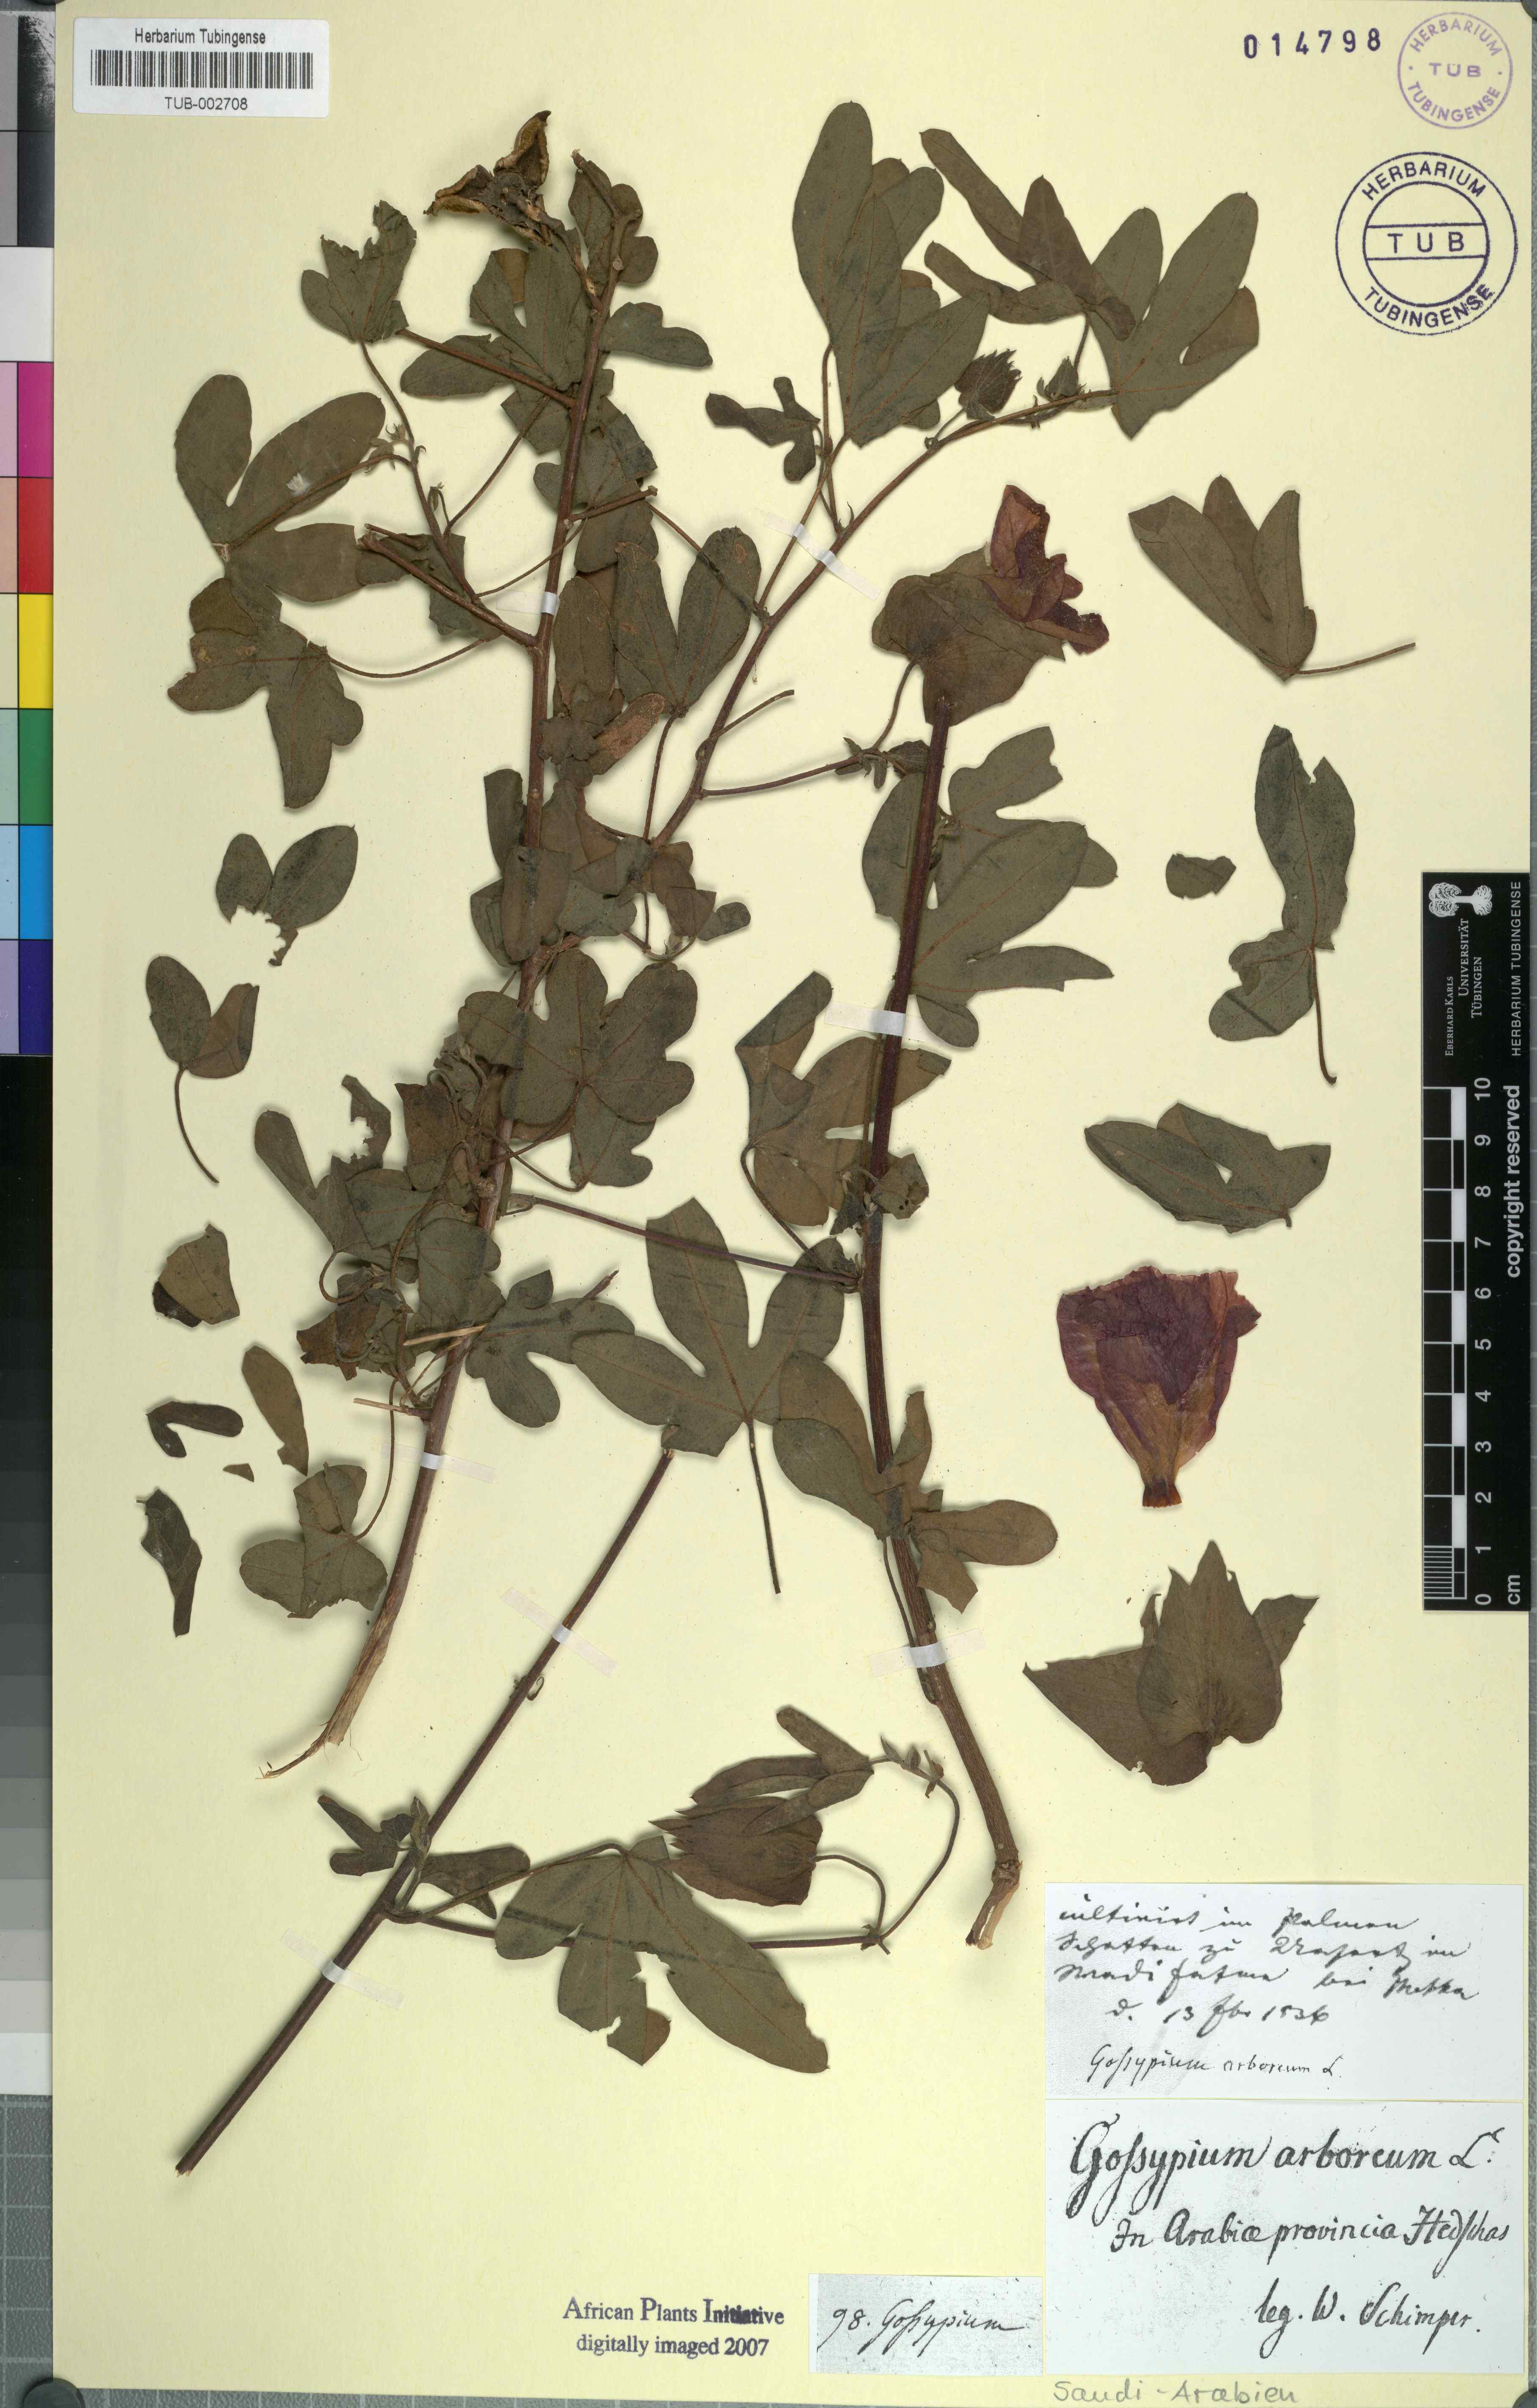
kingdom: Plantae
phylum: Tracheophyta
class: Magnoliopsida
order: Malvales
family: Malvaceae
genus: Gossypium
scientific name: Gossypium arboreum
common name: Tree cotton
